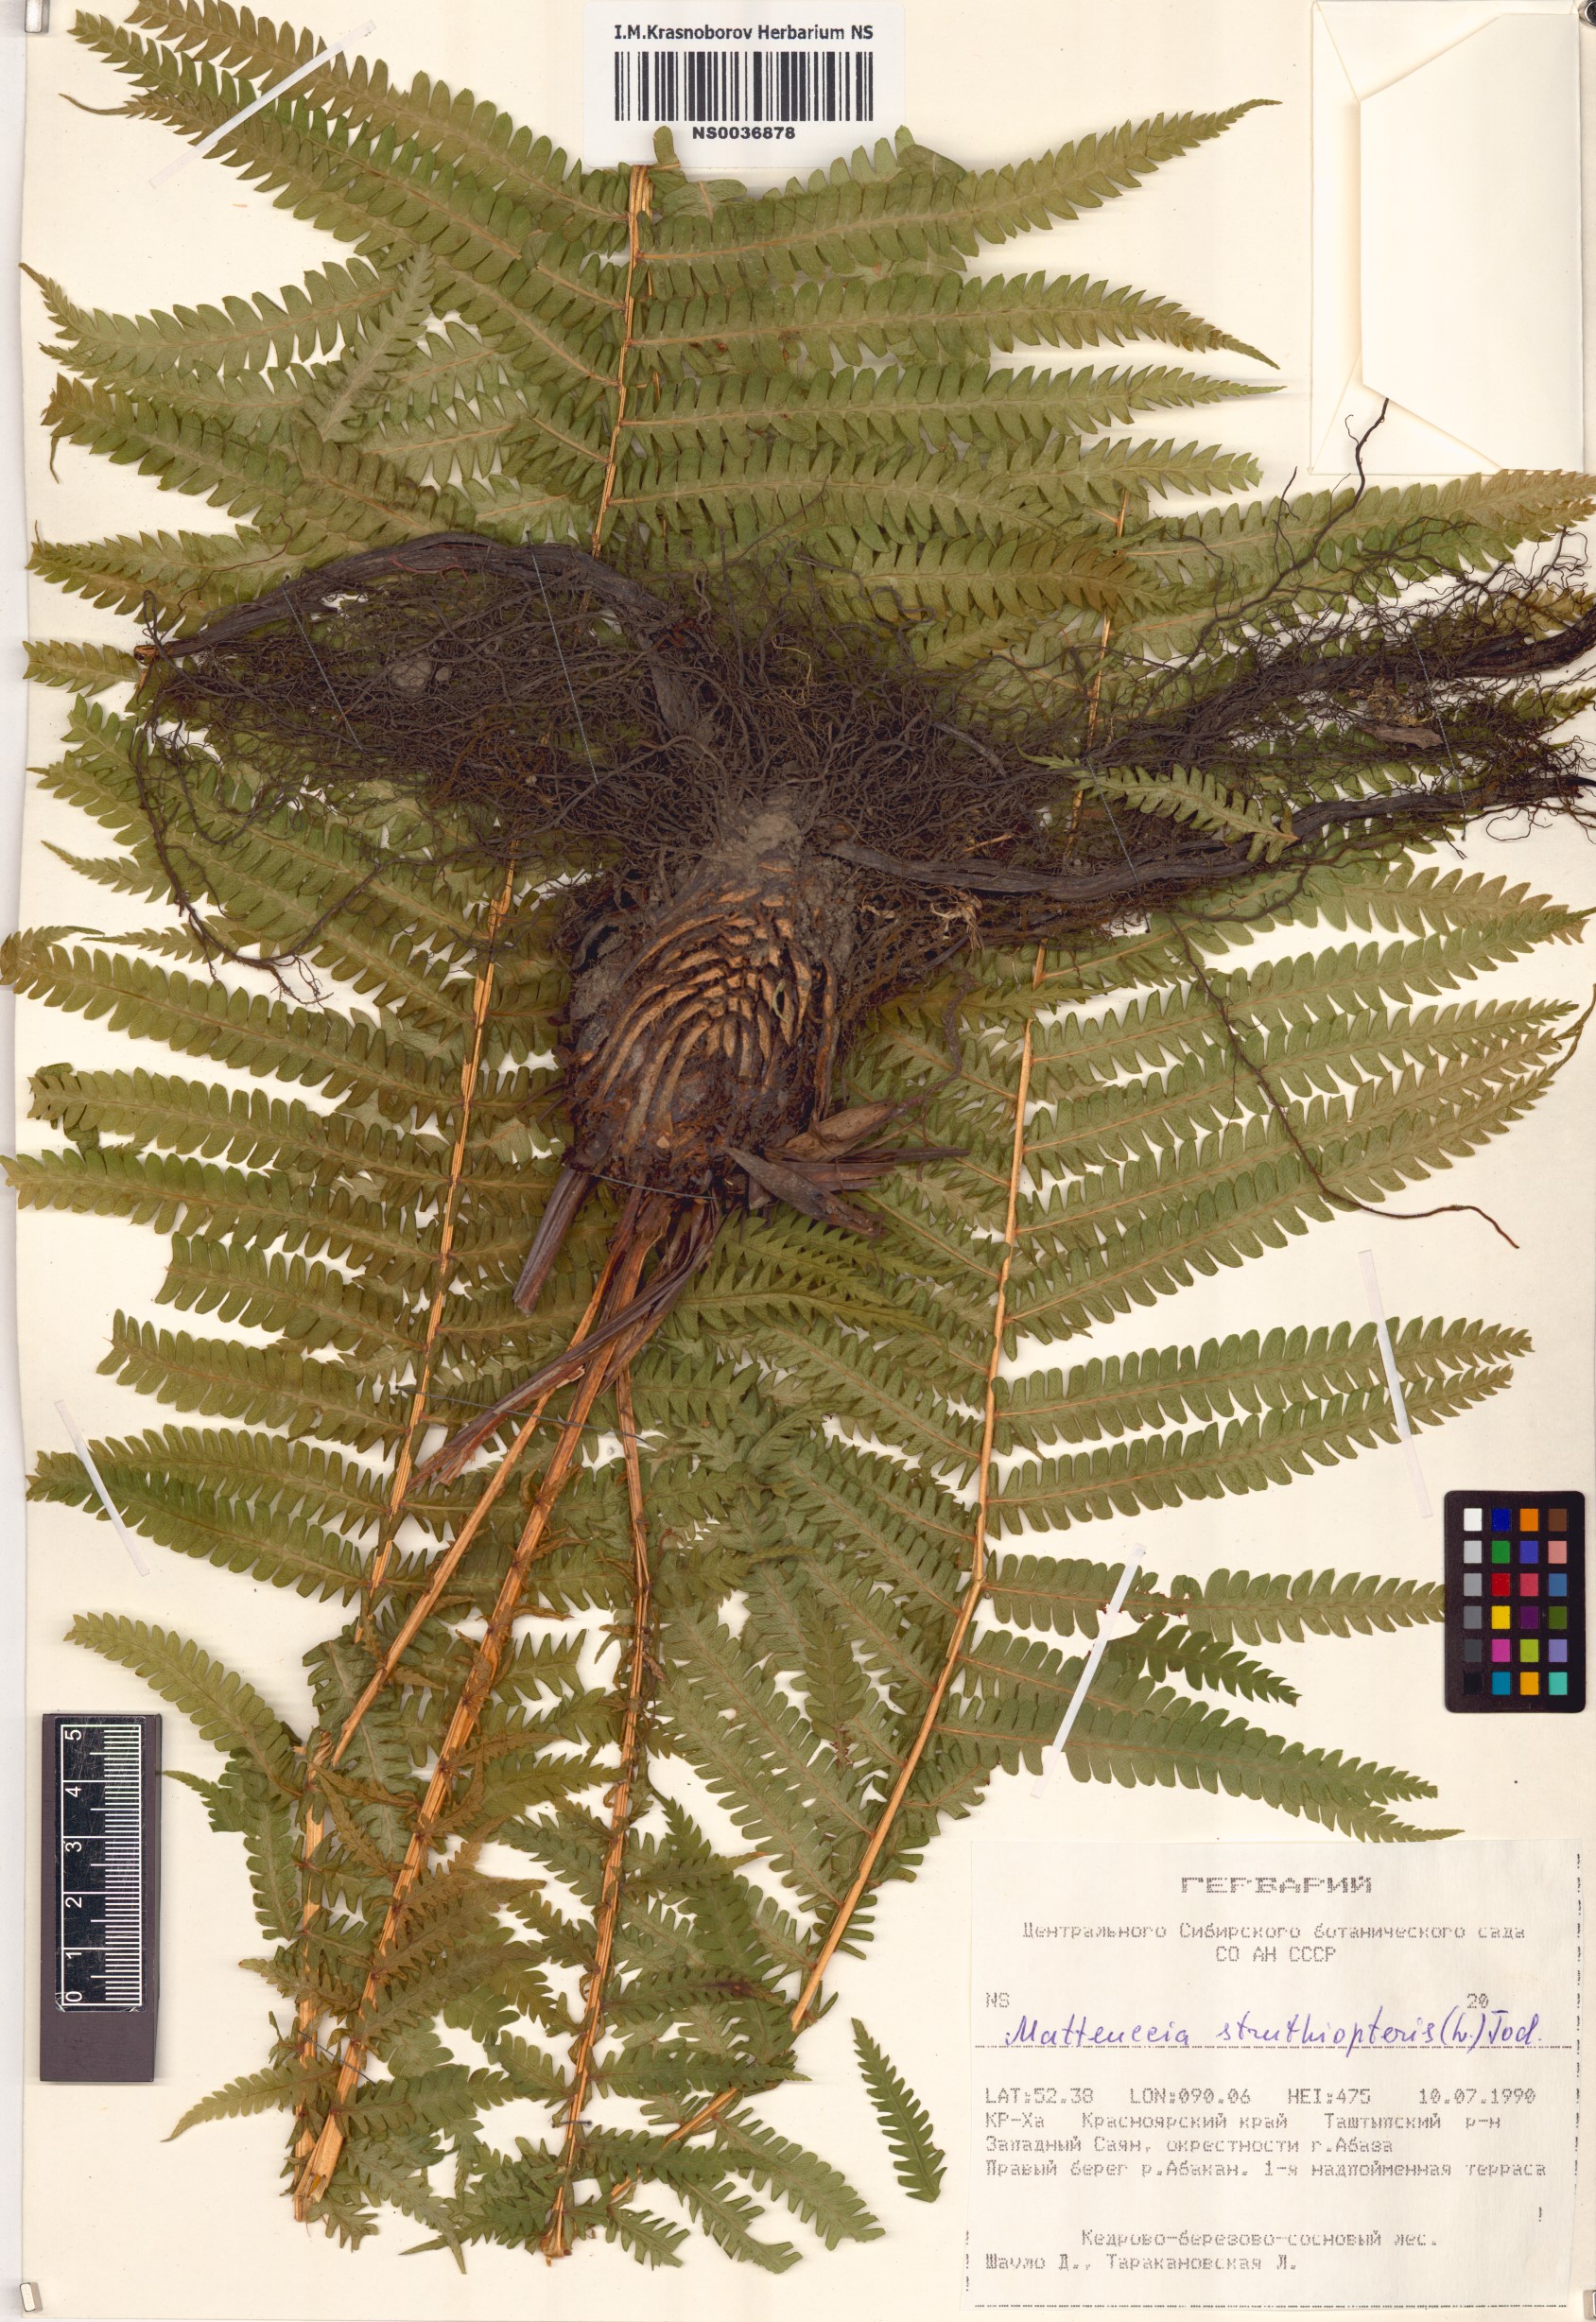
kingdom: Plantae
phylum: Tracheophyta
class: Polypodiopsida
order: Polypodiales
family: Onocleaceae
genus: Matteuccia
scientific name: Matteuccia struthiopteris
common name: Ostrich fern
